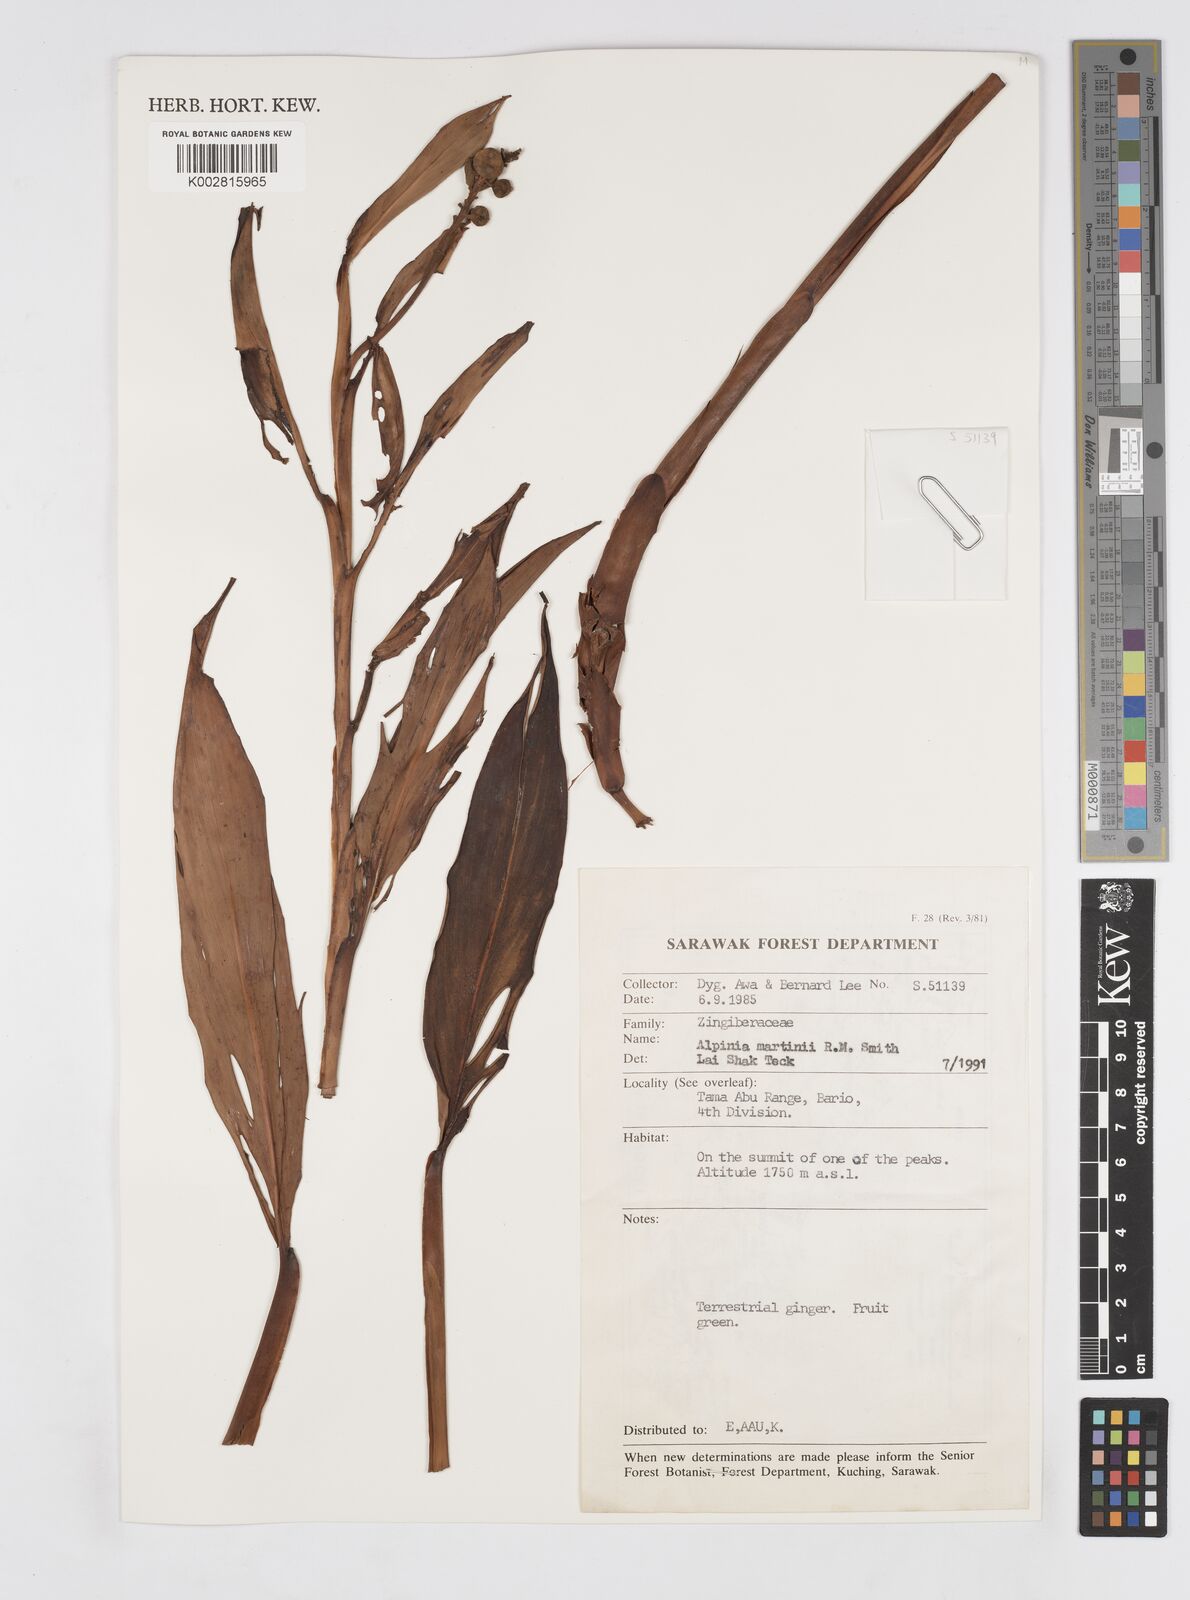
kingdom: Plantae
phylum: Tracheophyta
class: Liliopsida
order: Zingiberales
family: Zingiberaceae
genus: Alpinia
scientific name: Alpinia martini
